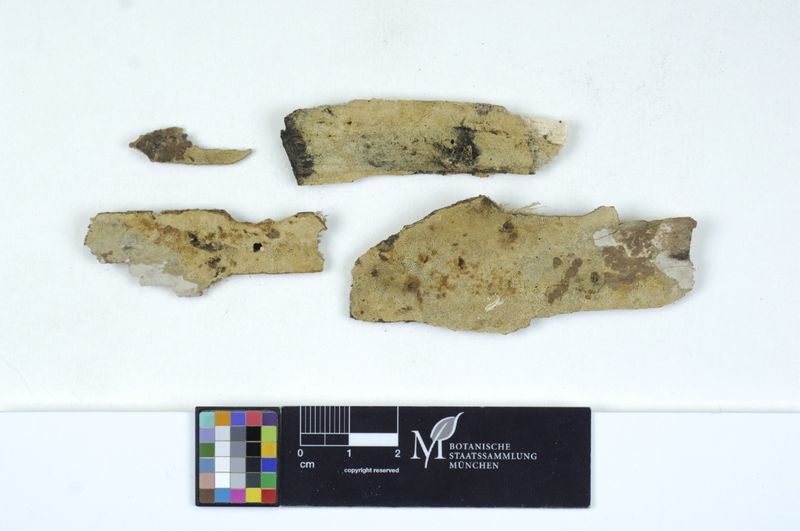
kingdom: Plantae
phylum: Tracheophyta
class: Magnoliopsida
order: Sapindales
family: Sapindaceae
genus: Acer
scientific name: Acer pseudoplatanus
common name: Sycamore
